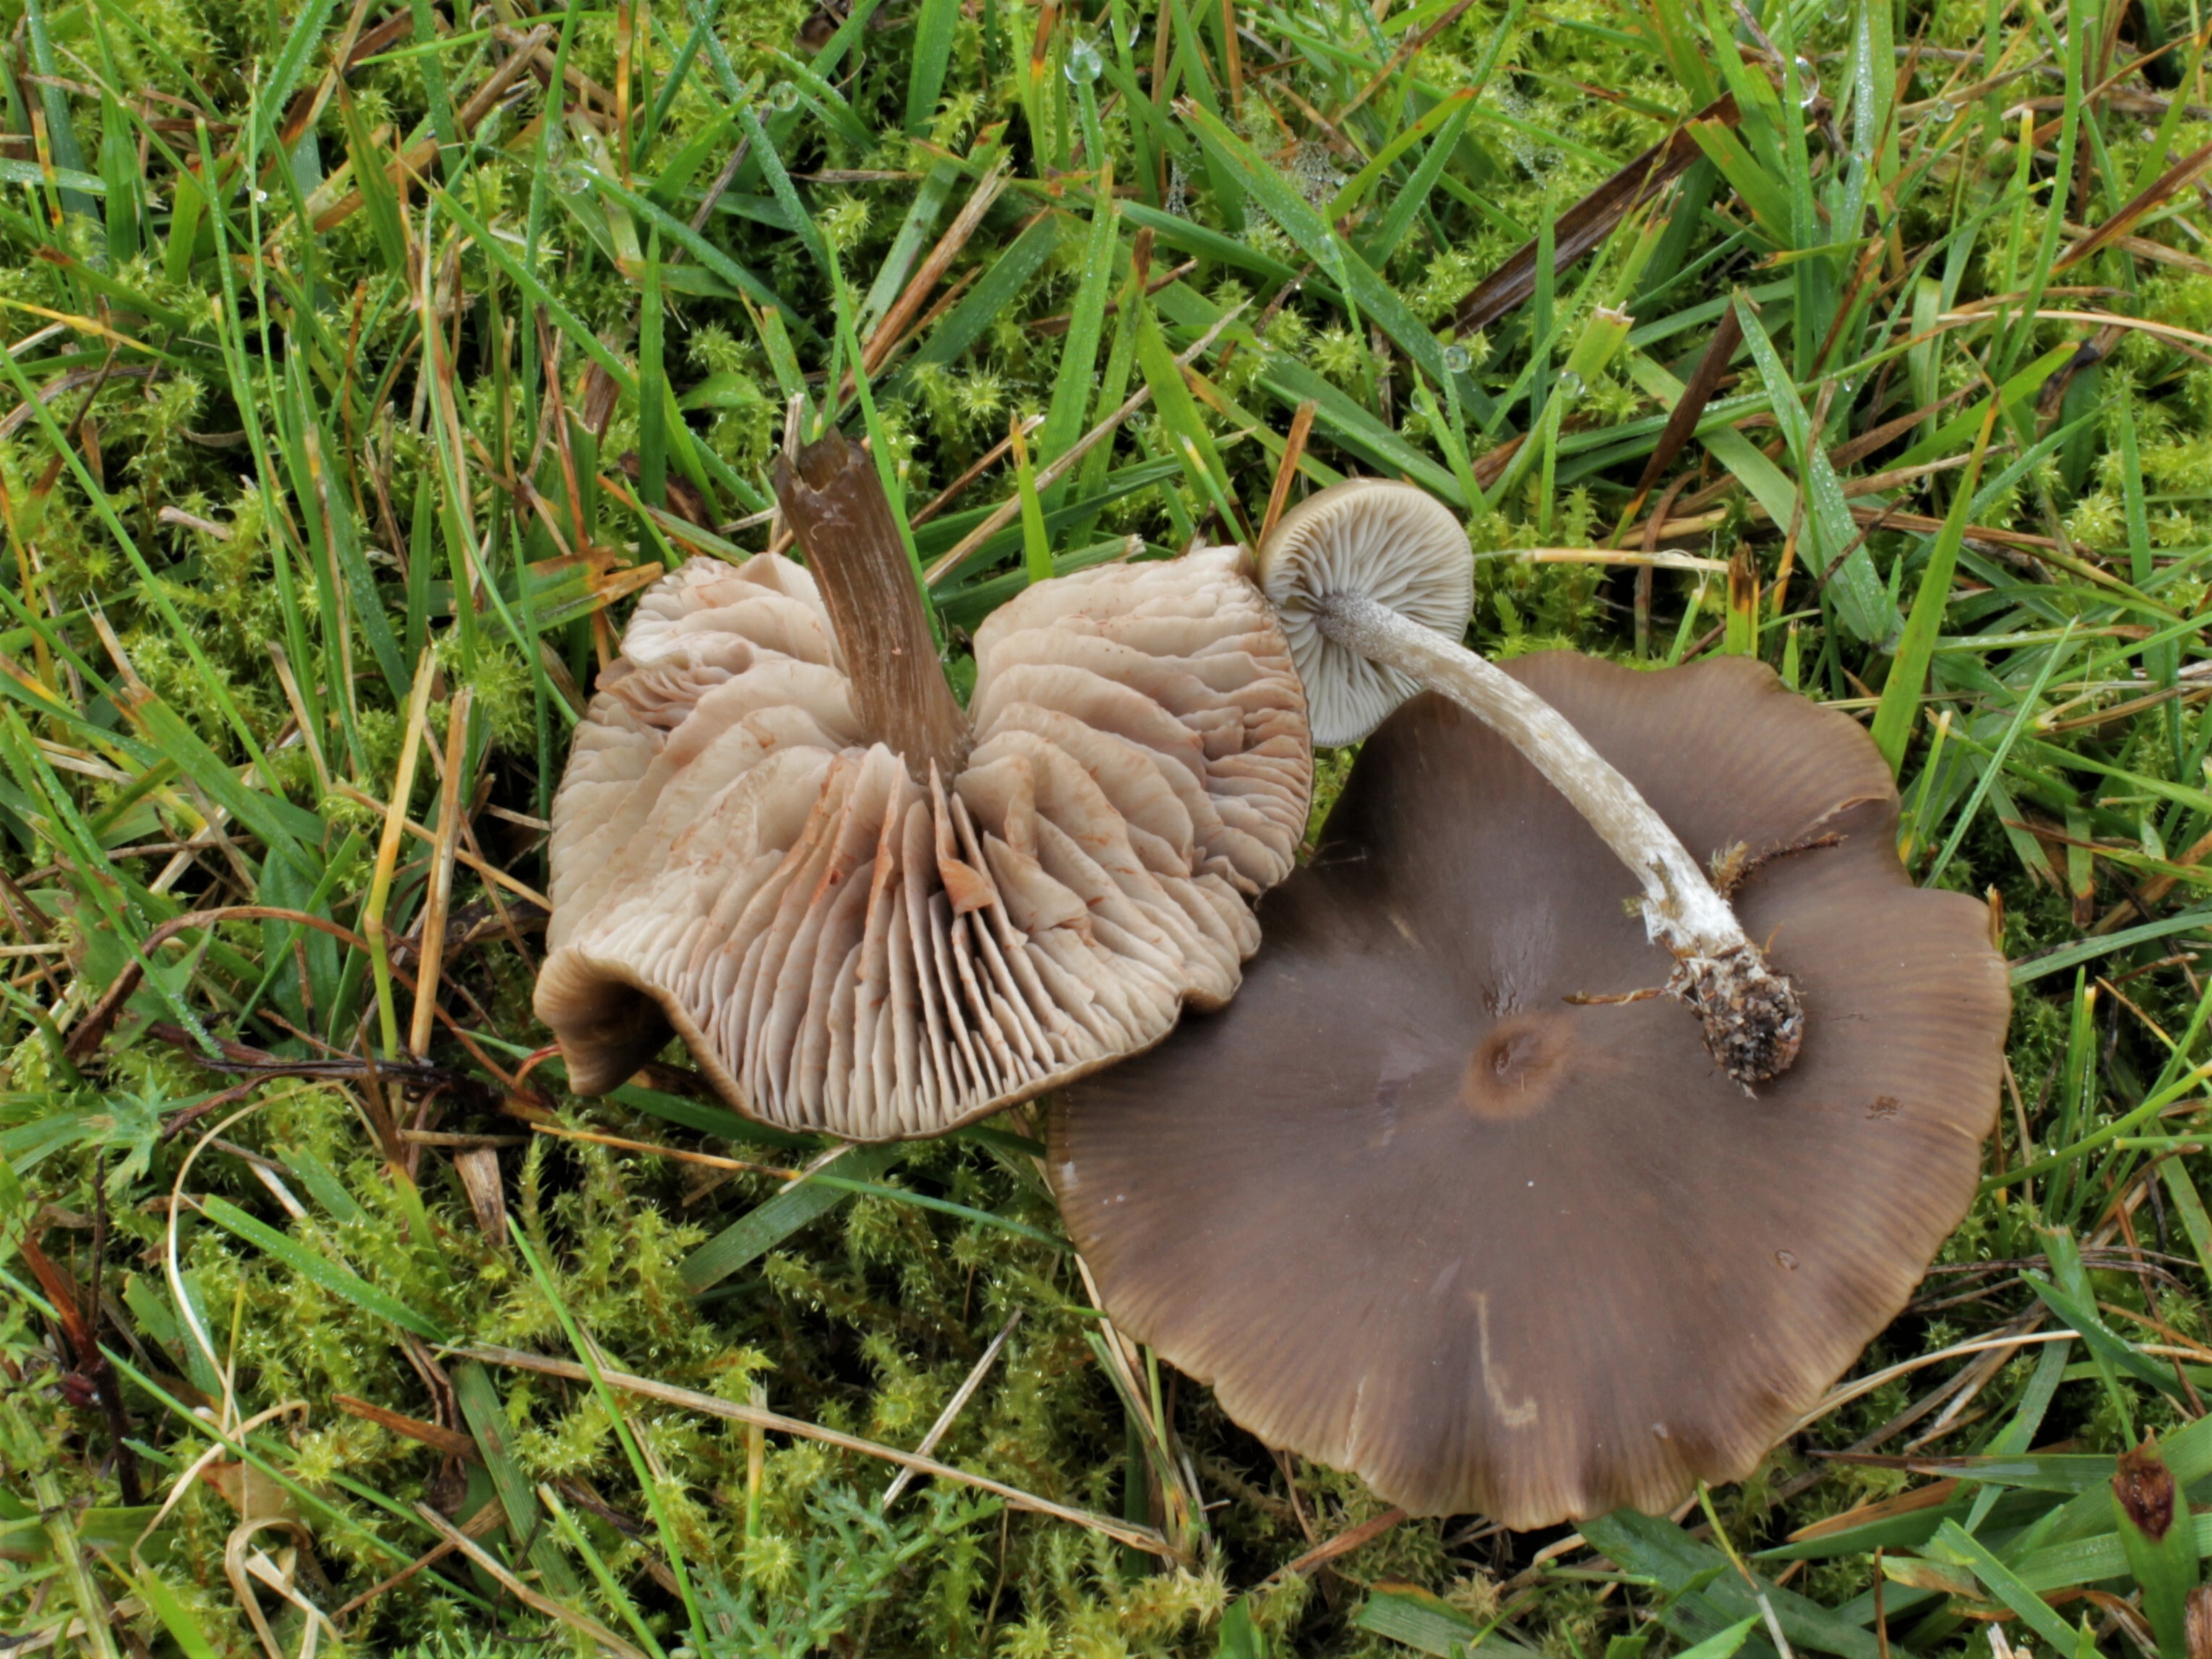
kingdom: Fungi
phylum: Basidiomycota
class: Agaricomycetes
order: Agaricales
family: Entolomataceae
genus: Entoloma
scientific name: Entoloma sericeum
